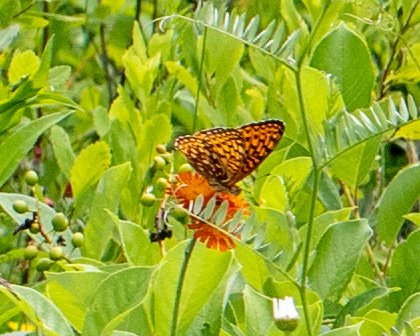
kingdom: Animalia
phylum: Arthropoda
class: Insecta
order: Lepidoptera
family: Nymphalidae
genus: Speyeria
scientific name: Speyeria atlantis
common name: Atlantis Fritillary
